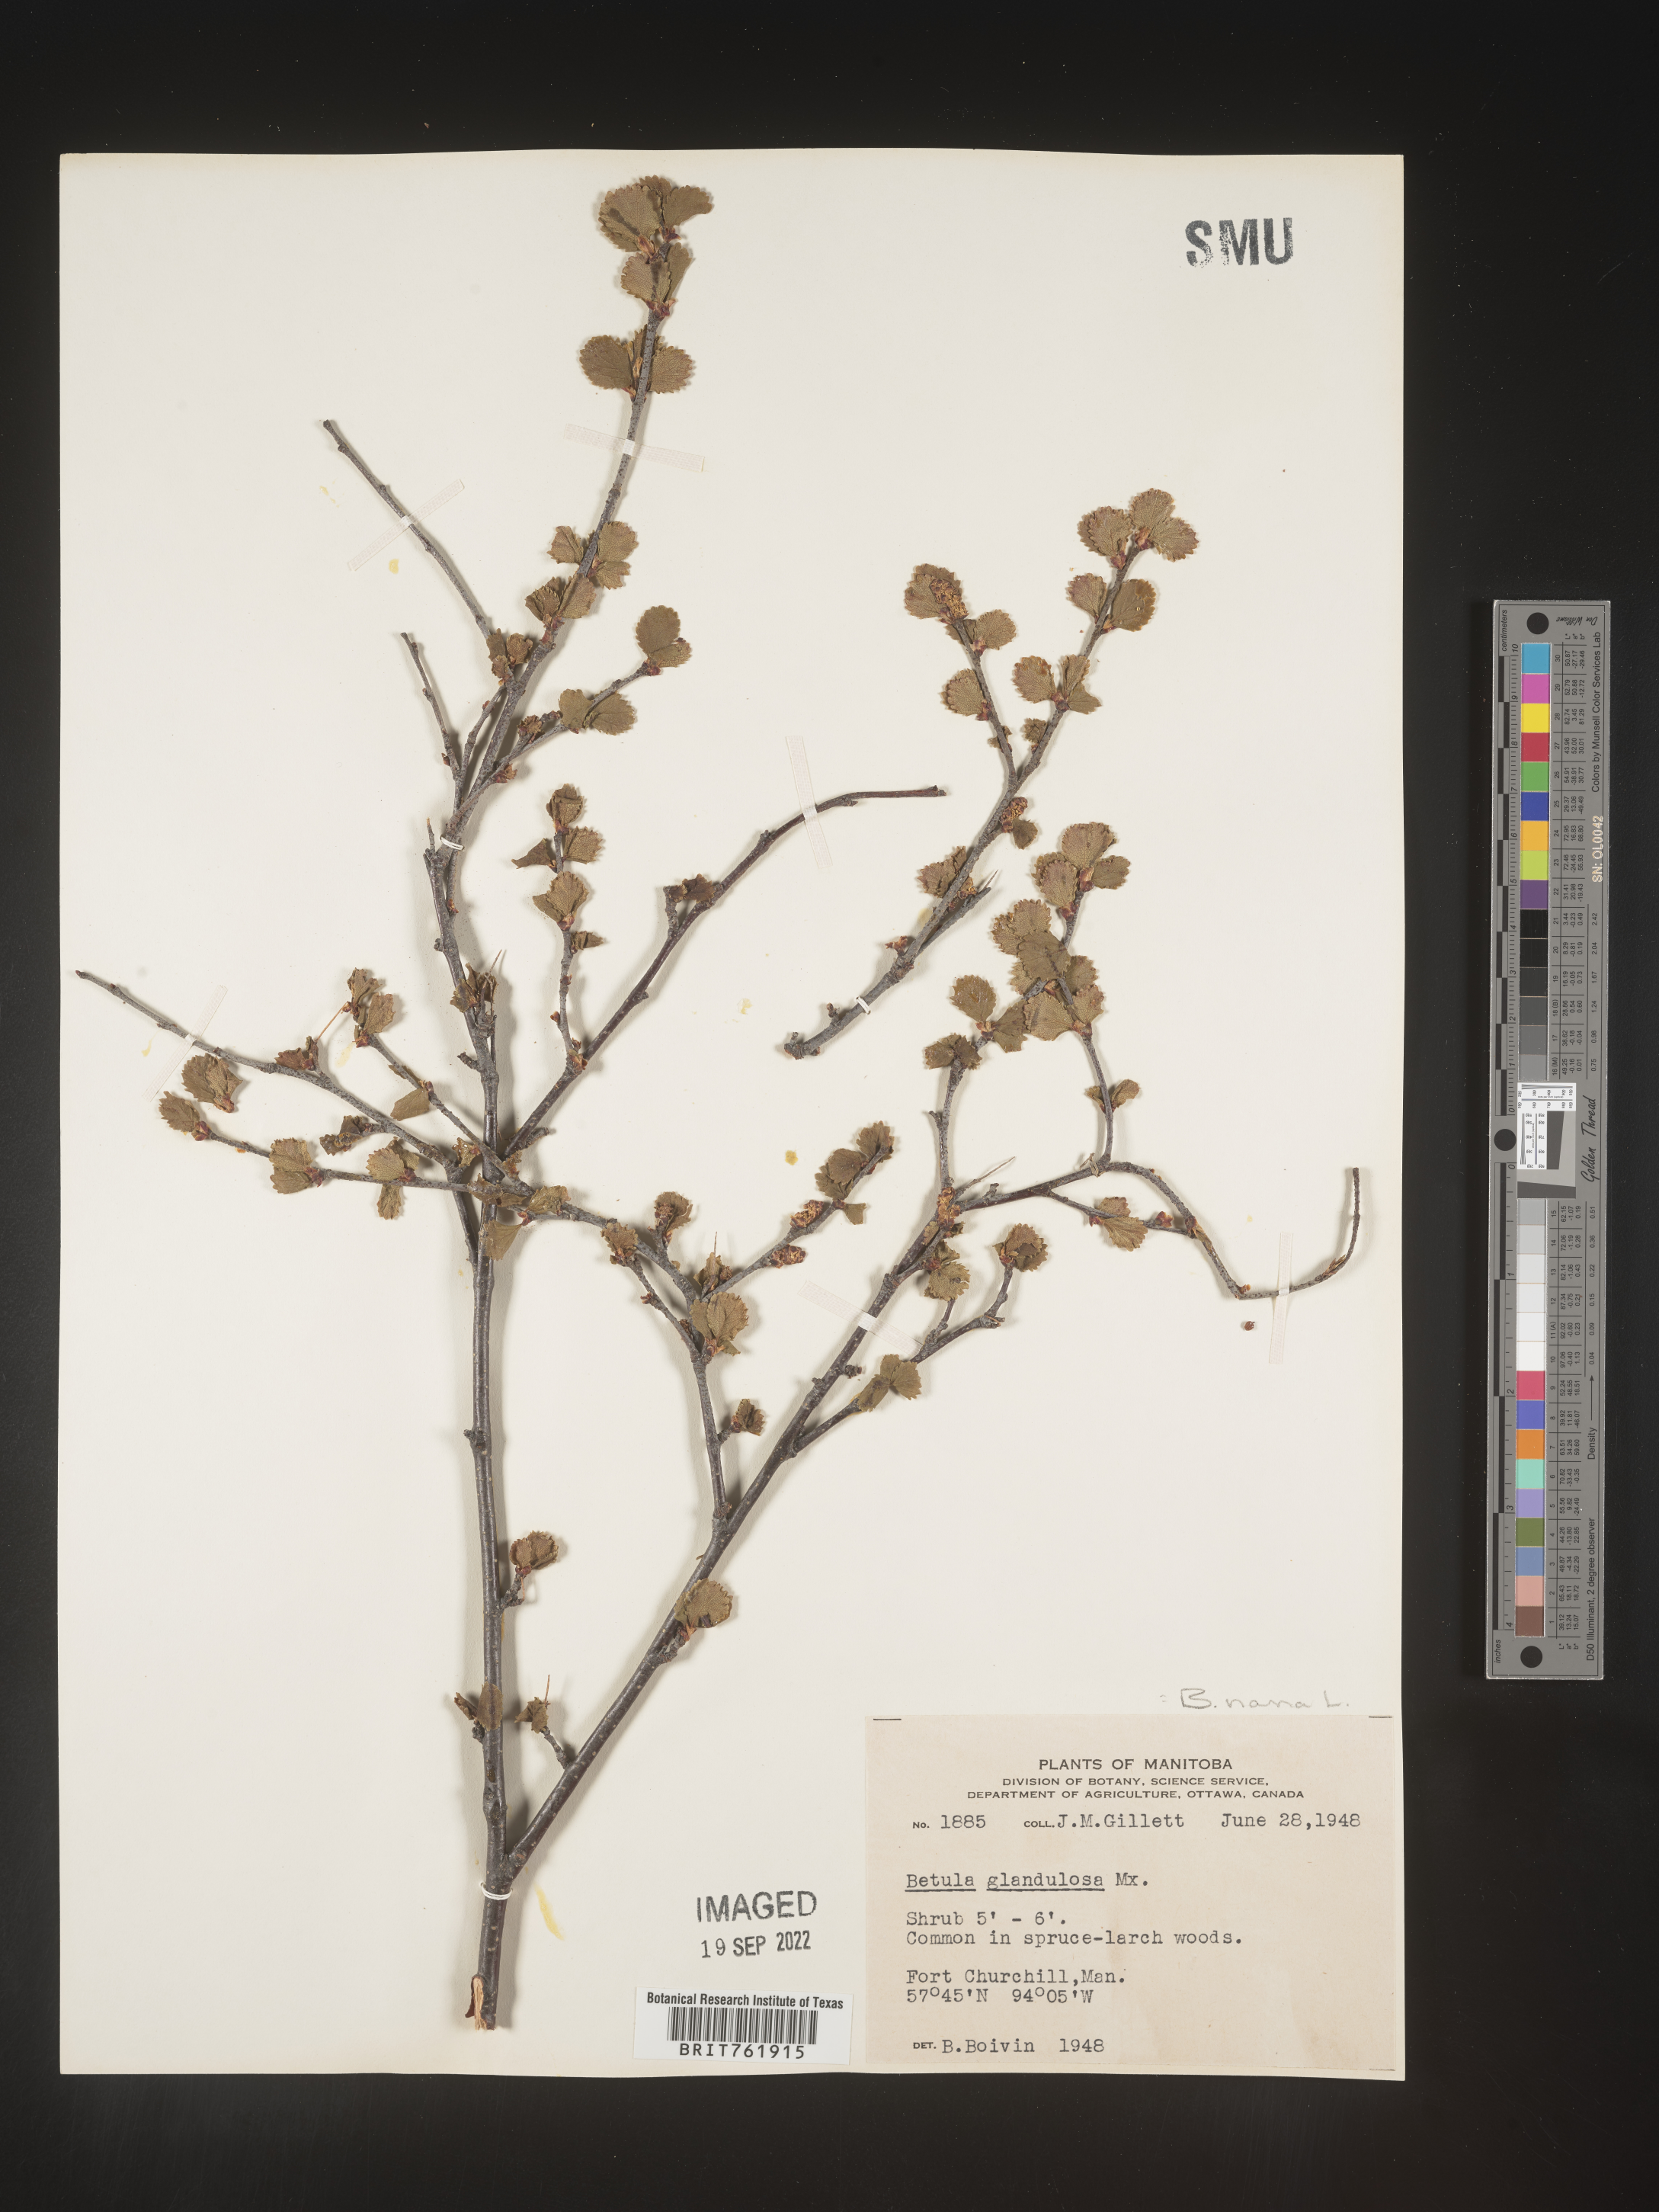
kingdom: Plantae
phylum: Tracheophyta
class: Magnoliopsida
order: Fagales
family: Betulaceae
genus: Betula
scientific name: Betula nana
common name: Arctic dwarf birch
